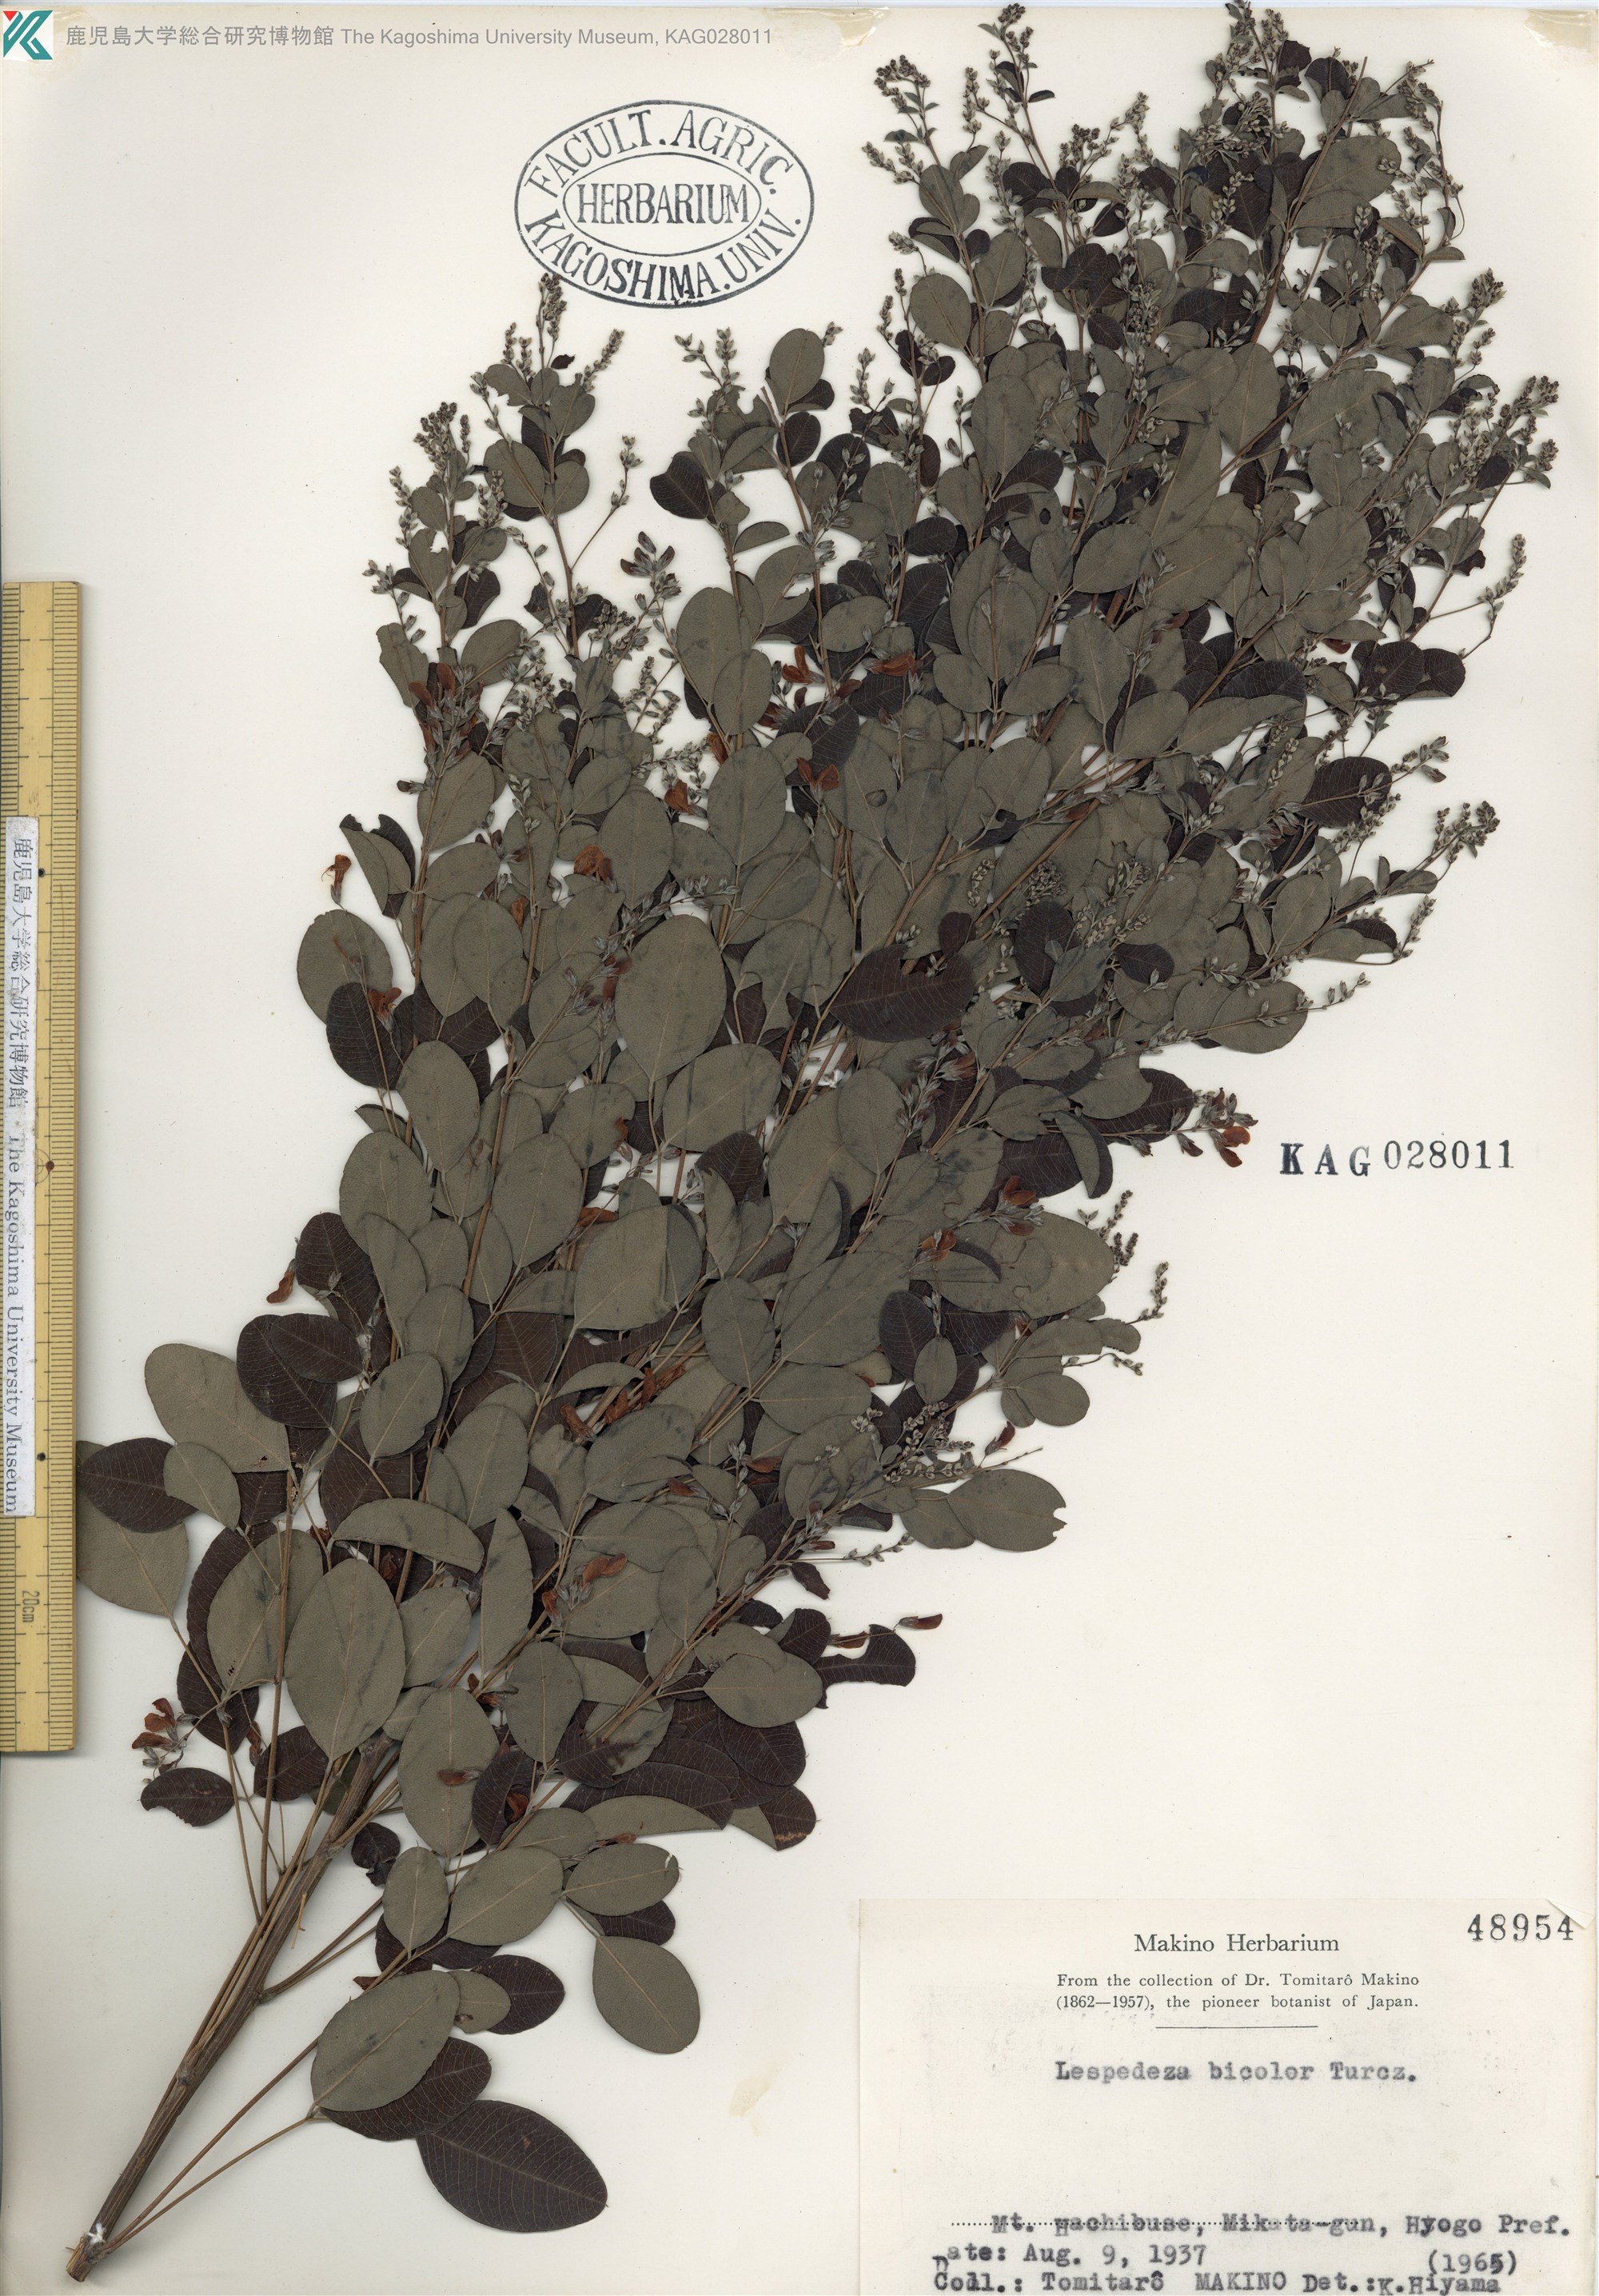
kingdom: Plantae
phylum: Tracheophyta
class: Magnoliopsida
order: Fabales
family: Fabaceae
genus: Lespedeza
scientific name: Lespedeza bicolor
